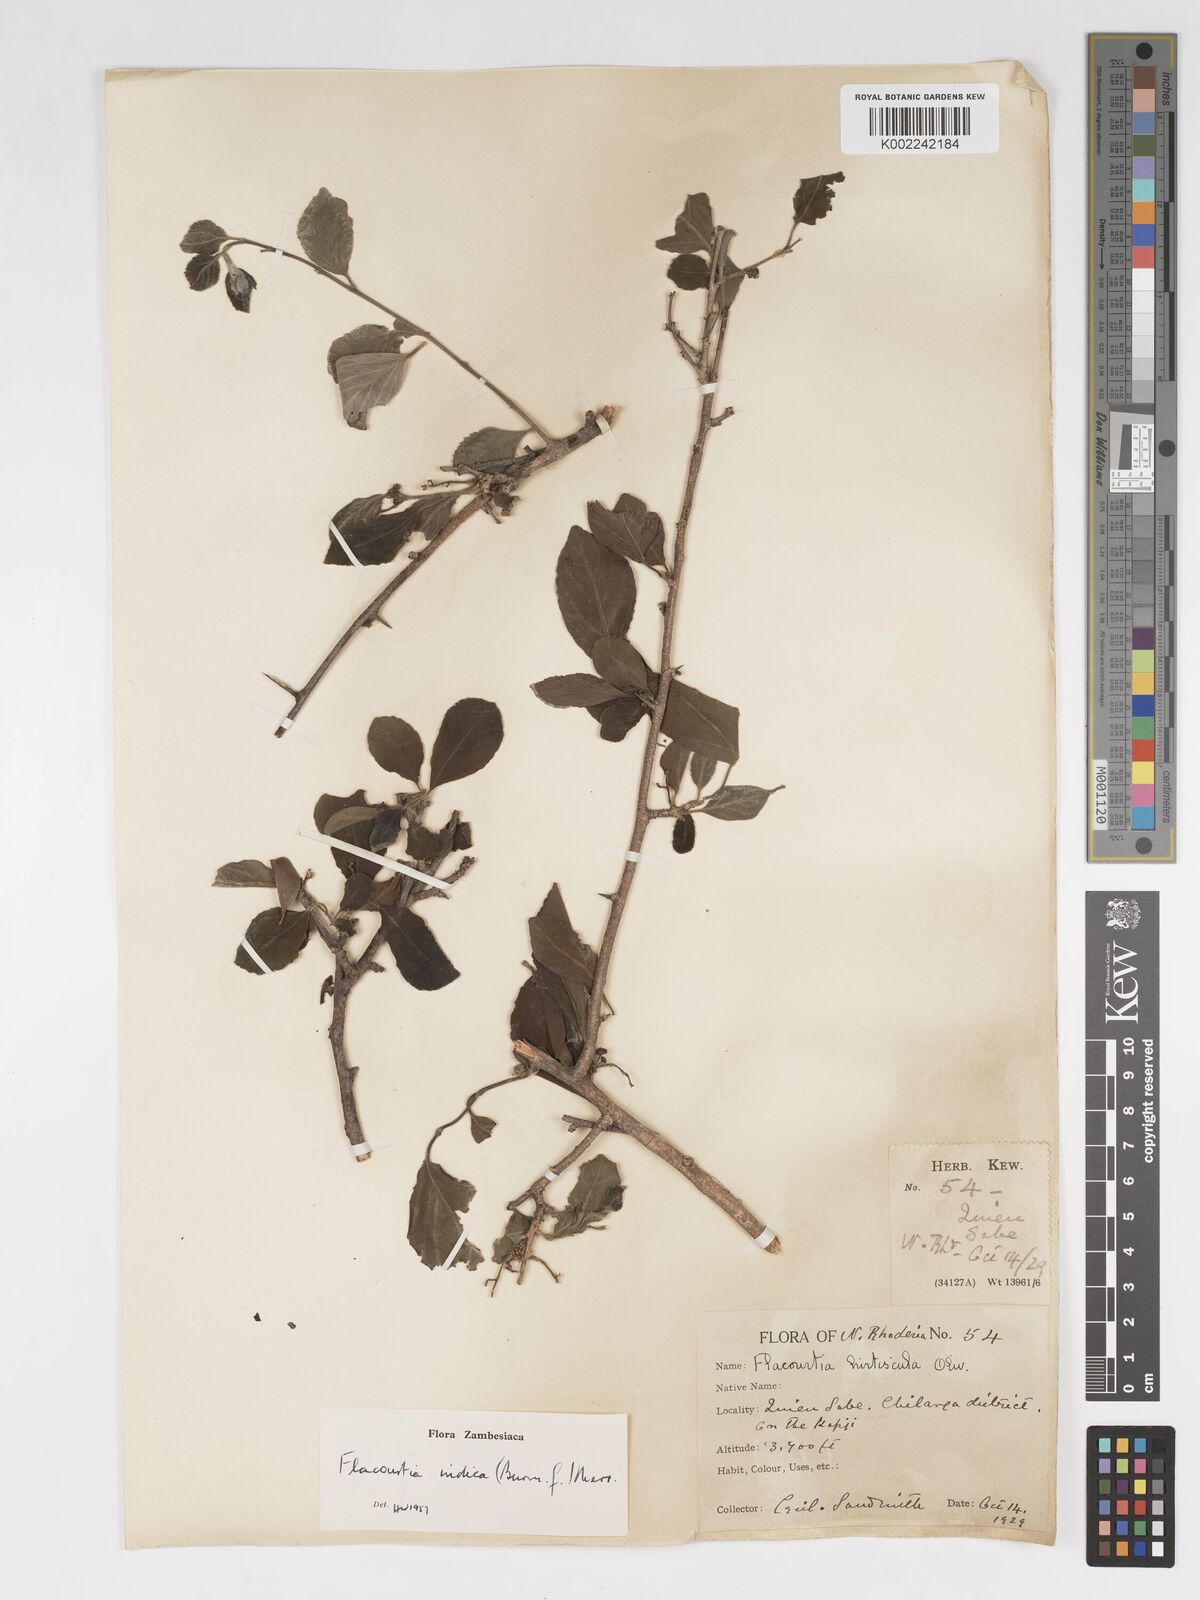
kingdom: Plantae
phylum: Tracheophyta
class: Magnoliopsida
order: Malpighiales
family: Salicaceae
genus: Flacourtia
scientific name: Flacourtia indica
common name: Governor's plum
